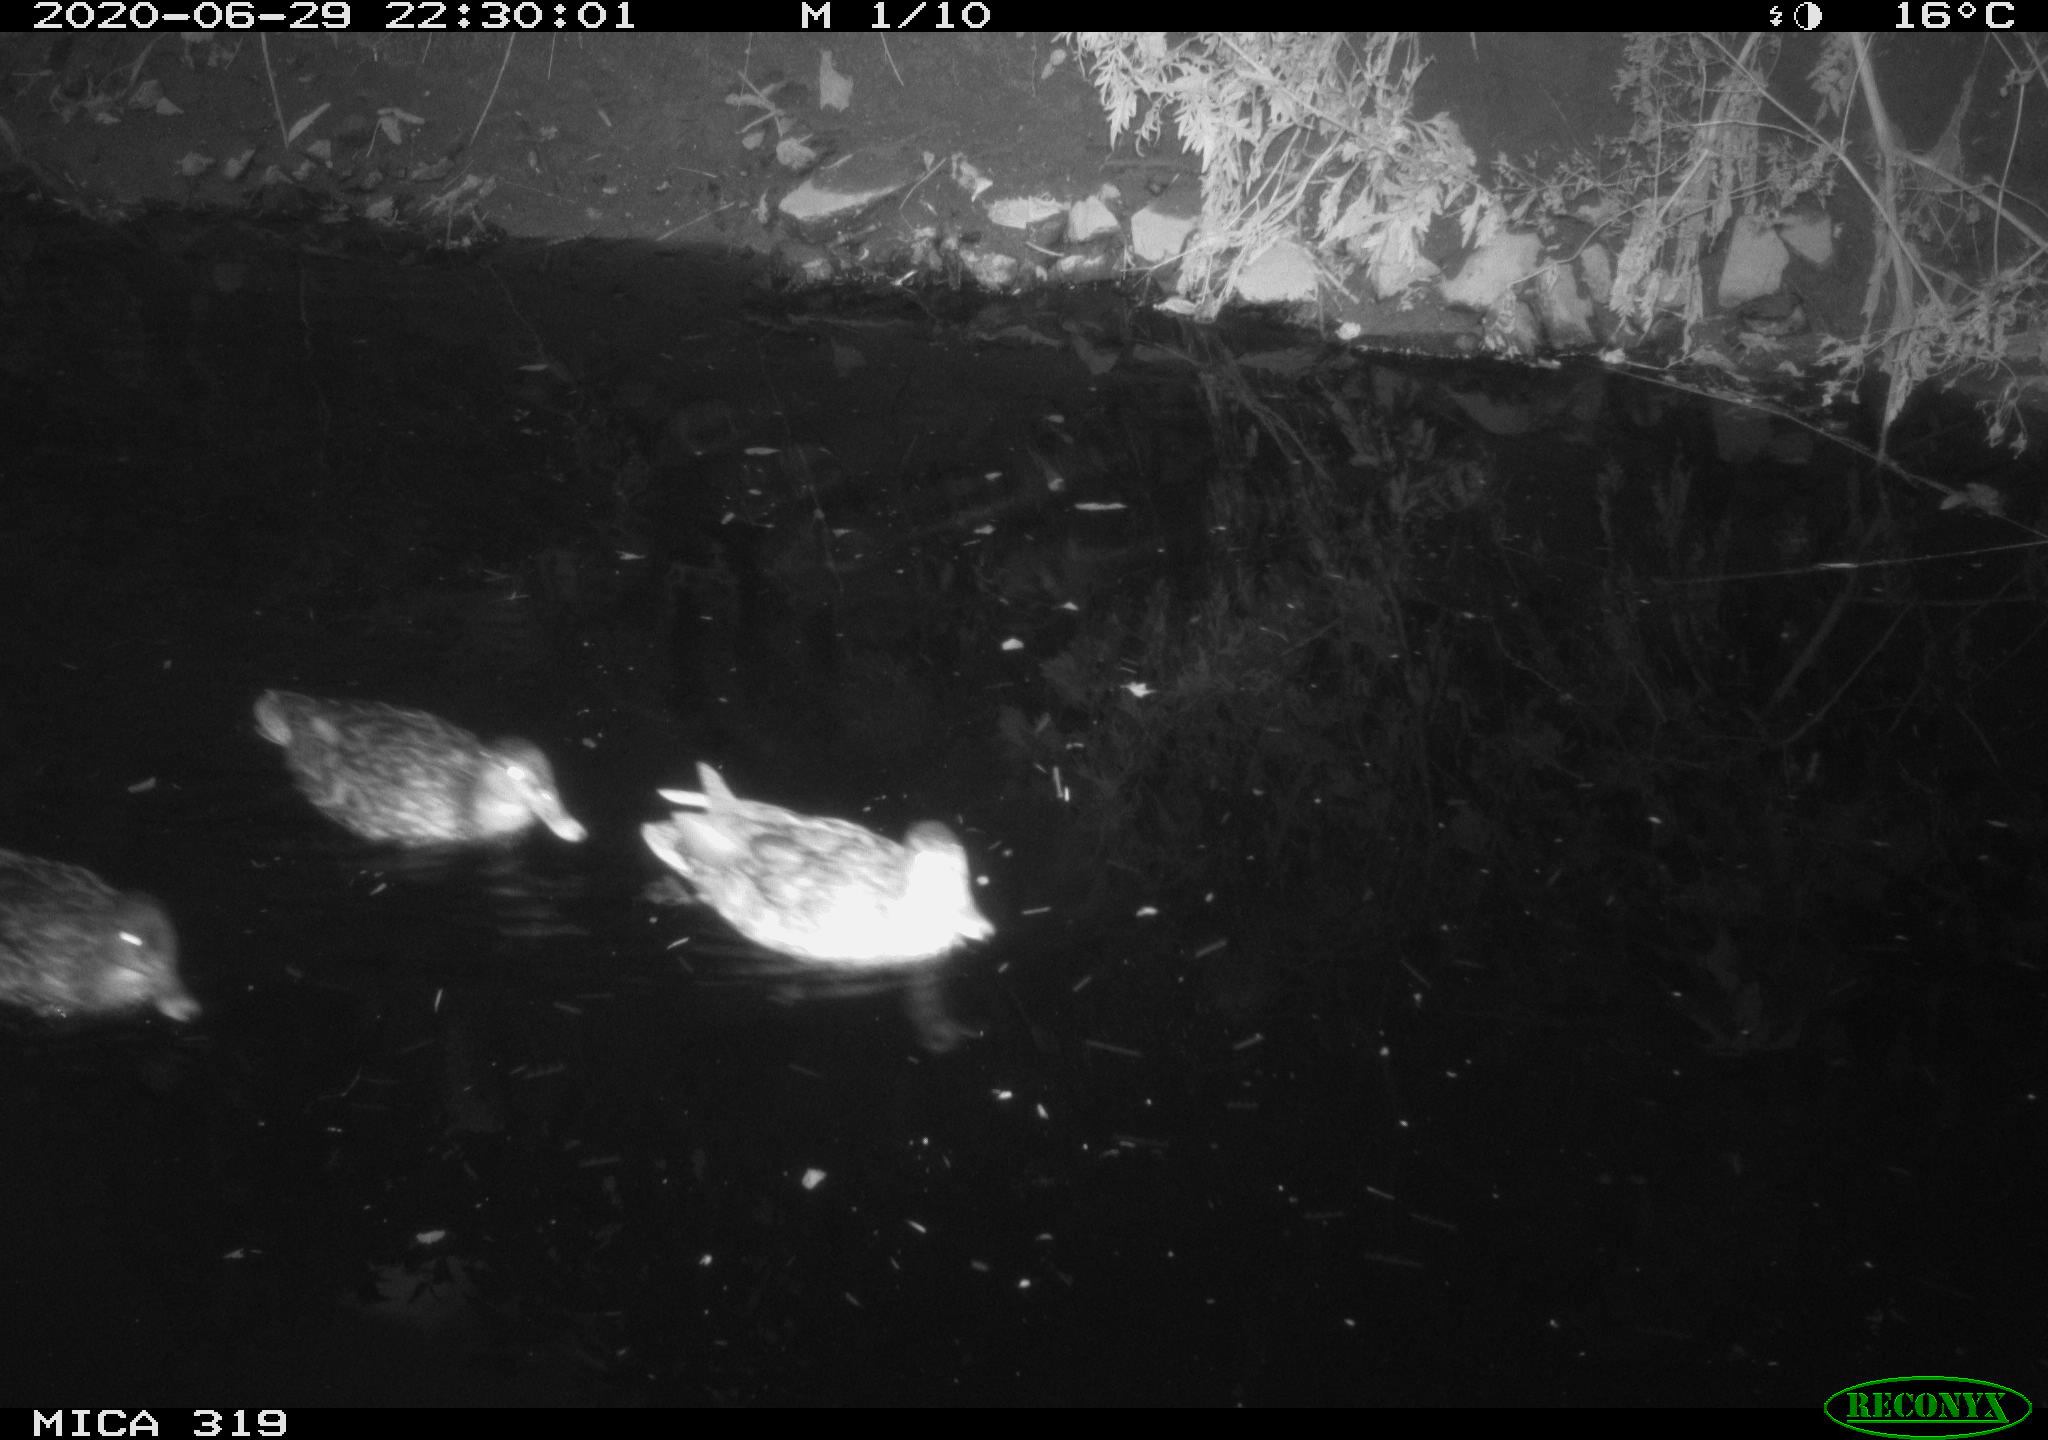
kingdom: Animalia
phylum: Chordata
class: Aves
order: Anseriformes
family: Anatidae
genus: Anas
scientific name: Anas platyrhynchos
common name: Mallard
